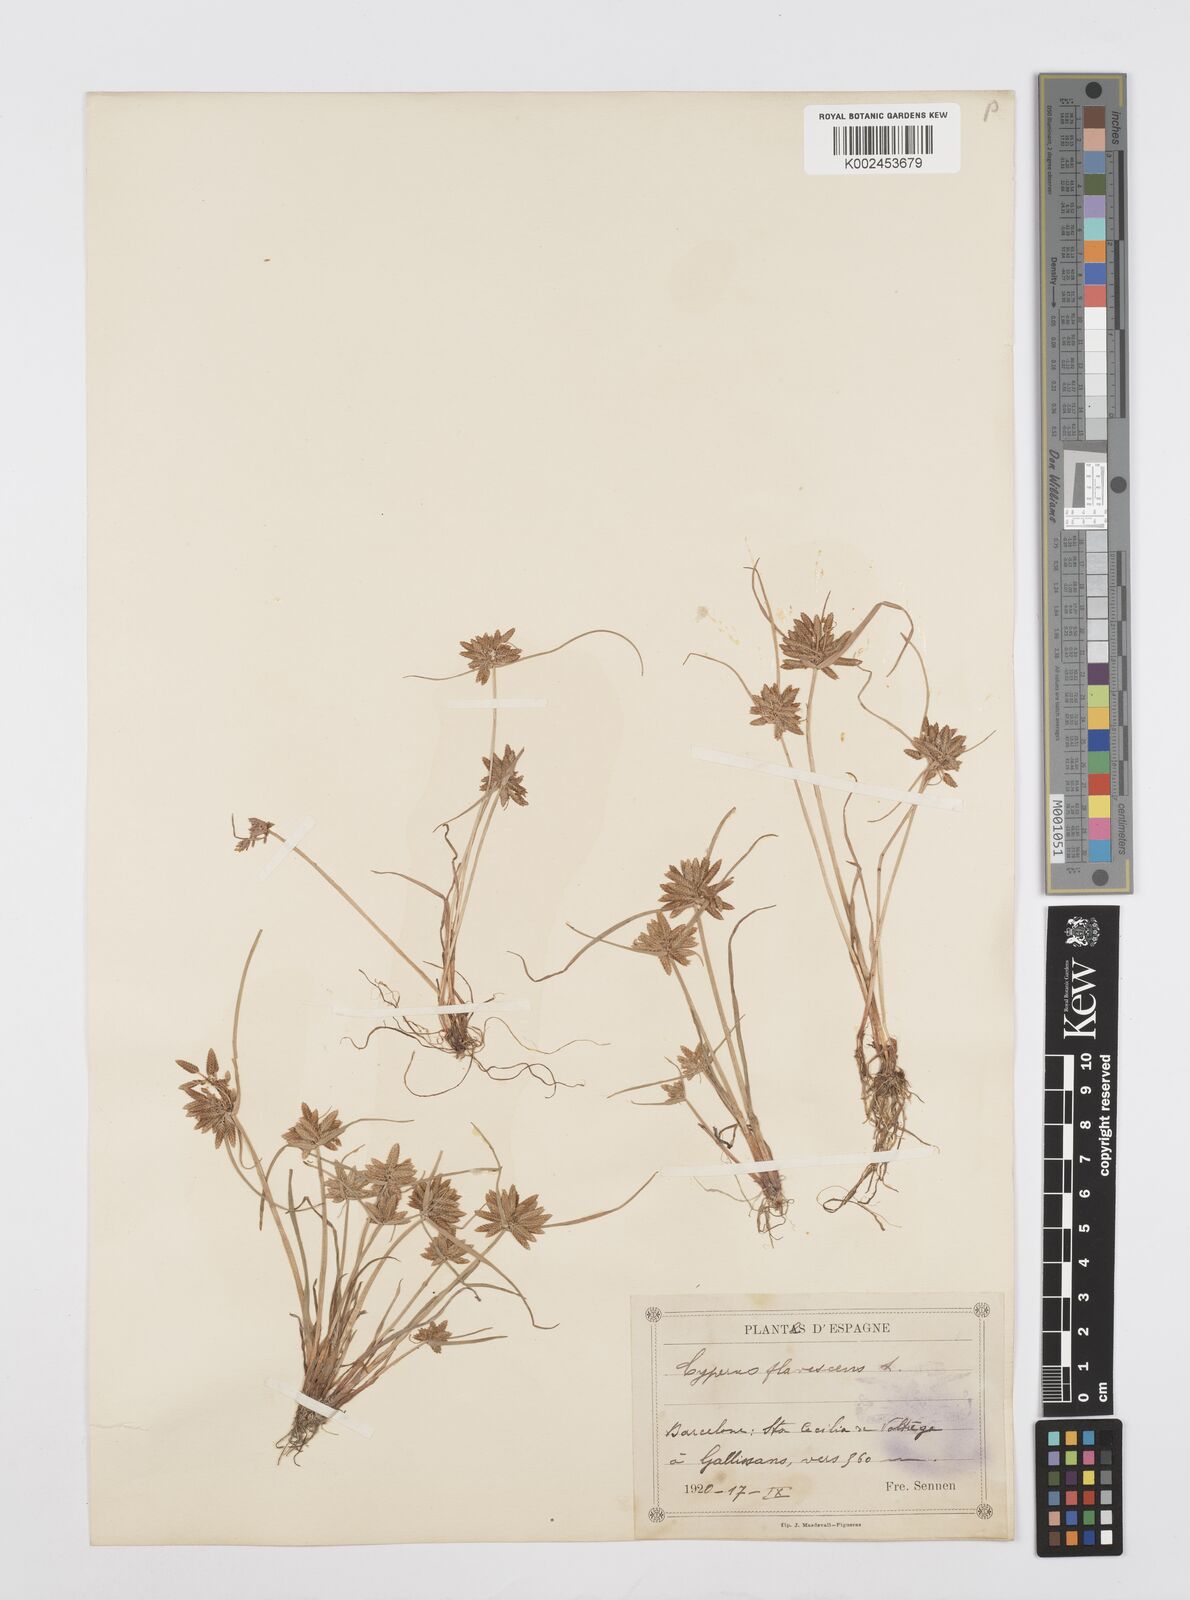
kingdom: Plantae
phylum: Tracheophyta
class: Liliopsida
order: Poales
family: Cyperaceae
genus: Cyperus
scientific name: Cyperus flavescens
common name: Yellow galingale
